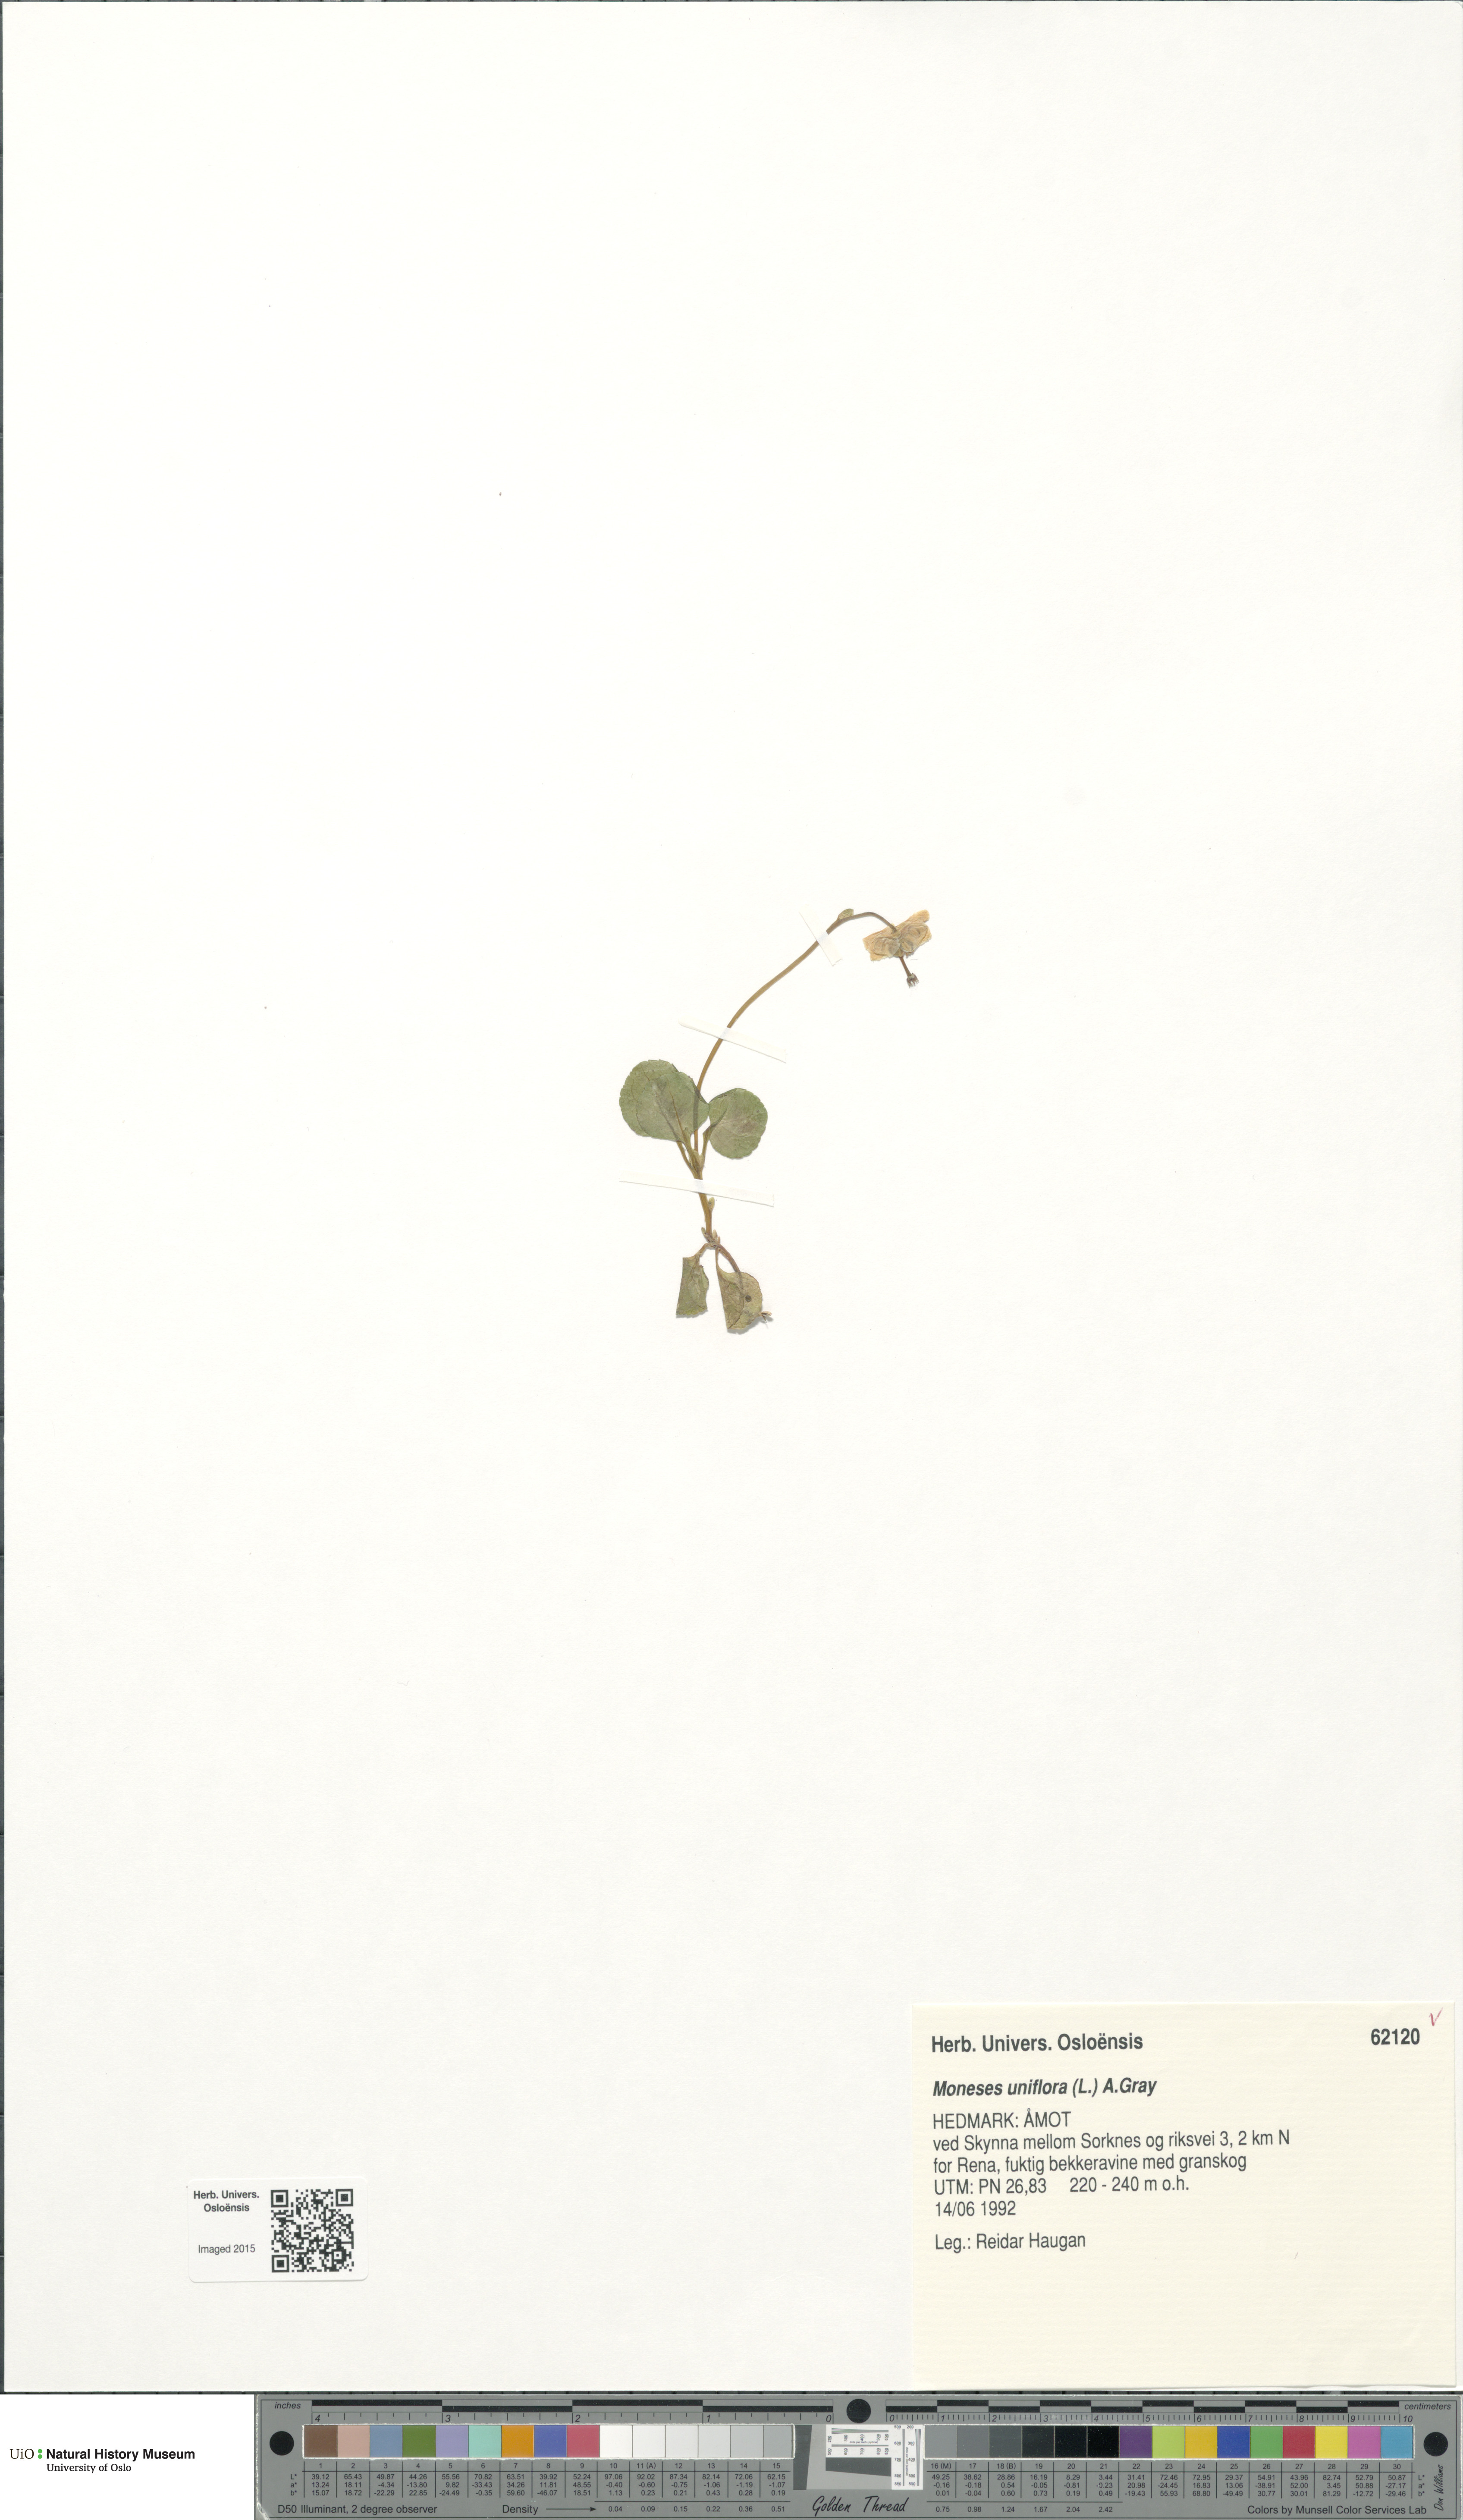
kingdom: Plantae
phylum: Tracheophyta
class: Magnoliopsida
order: Ericales
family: Ericaceae
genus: Moneses
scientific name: Moneses uniflora
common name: One-flowered wintergreen
